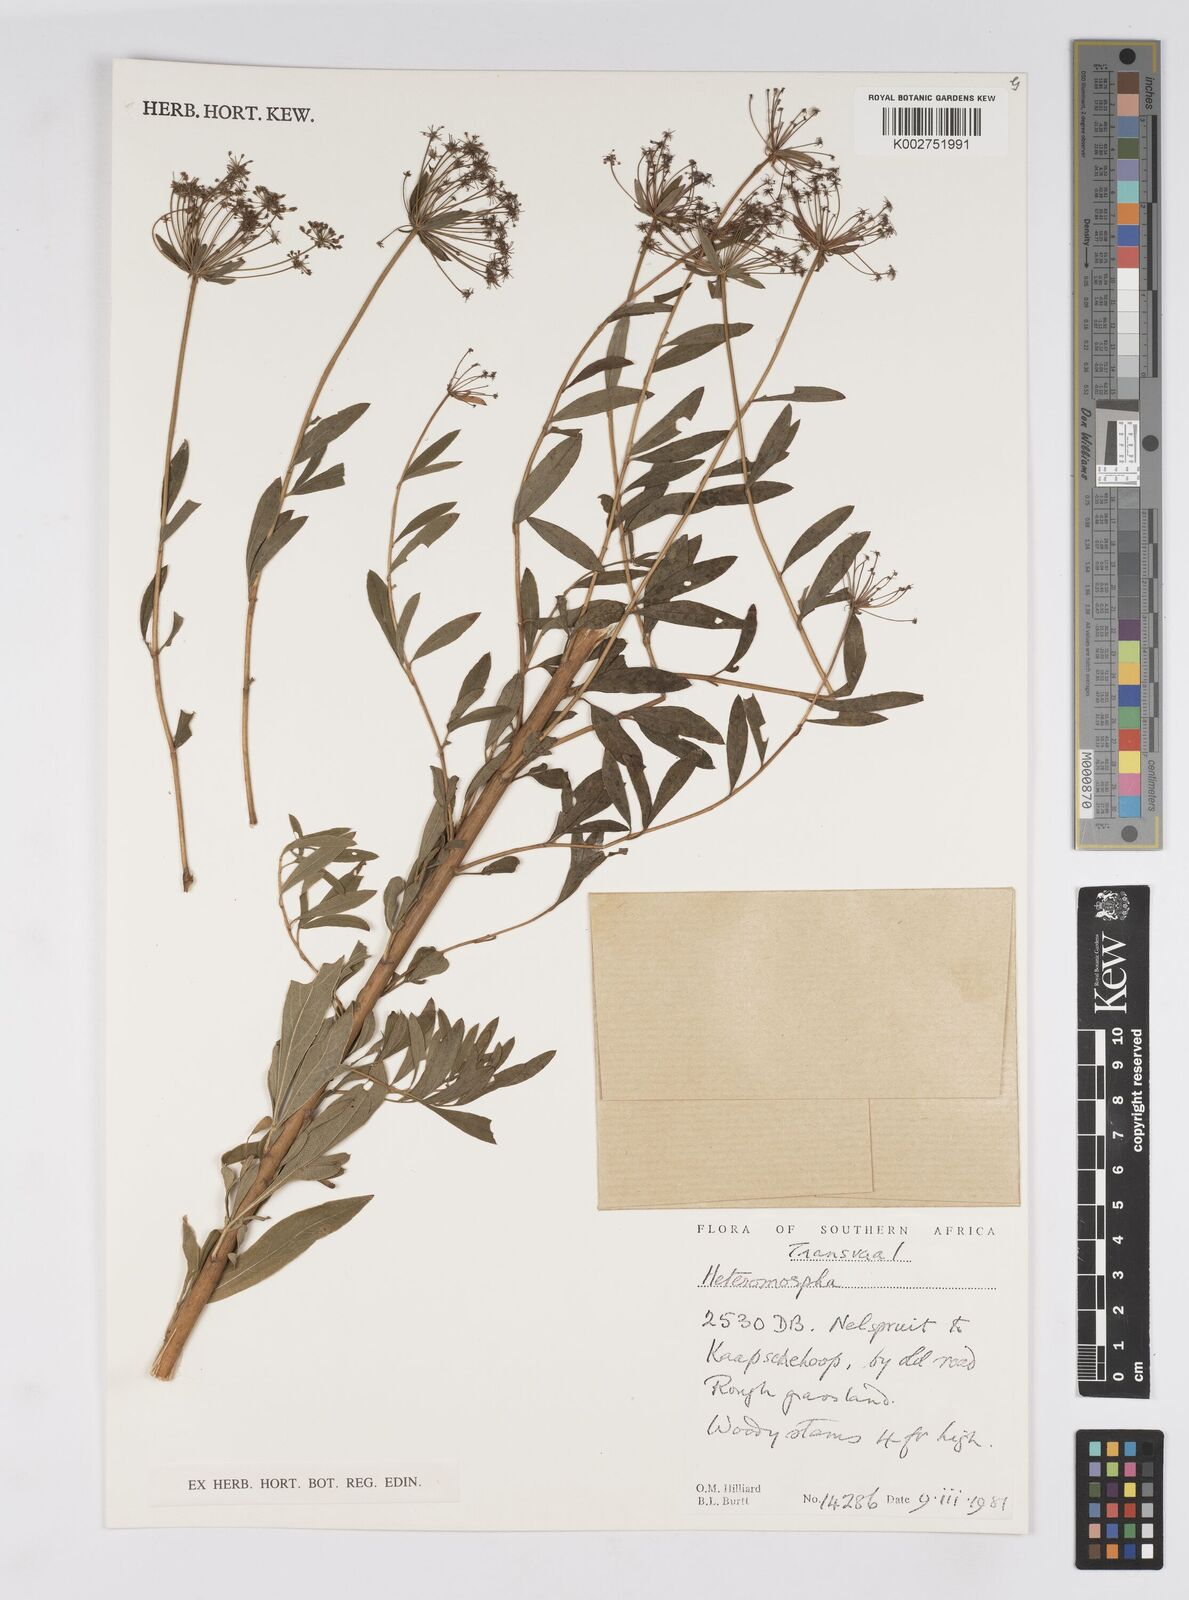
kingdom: Plantae
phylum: Tracheophyta
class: Magnoliopsida
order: Apiales
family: Apiaceae
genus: Heteromorpha
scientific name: Heteromorpha
